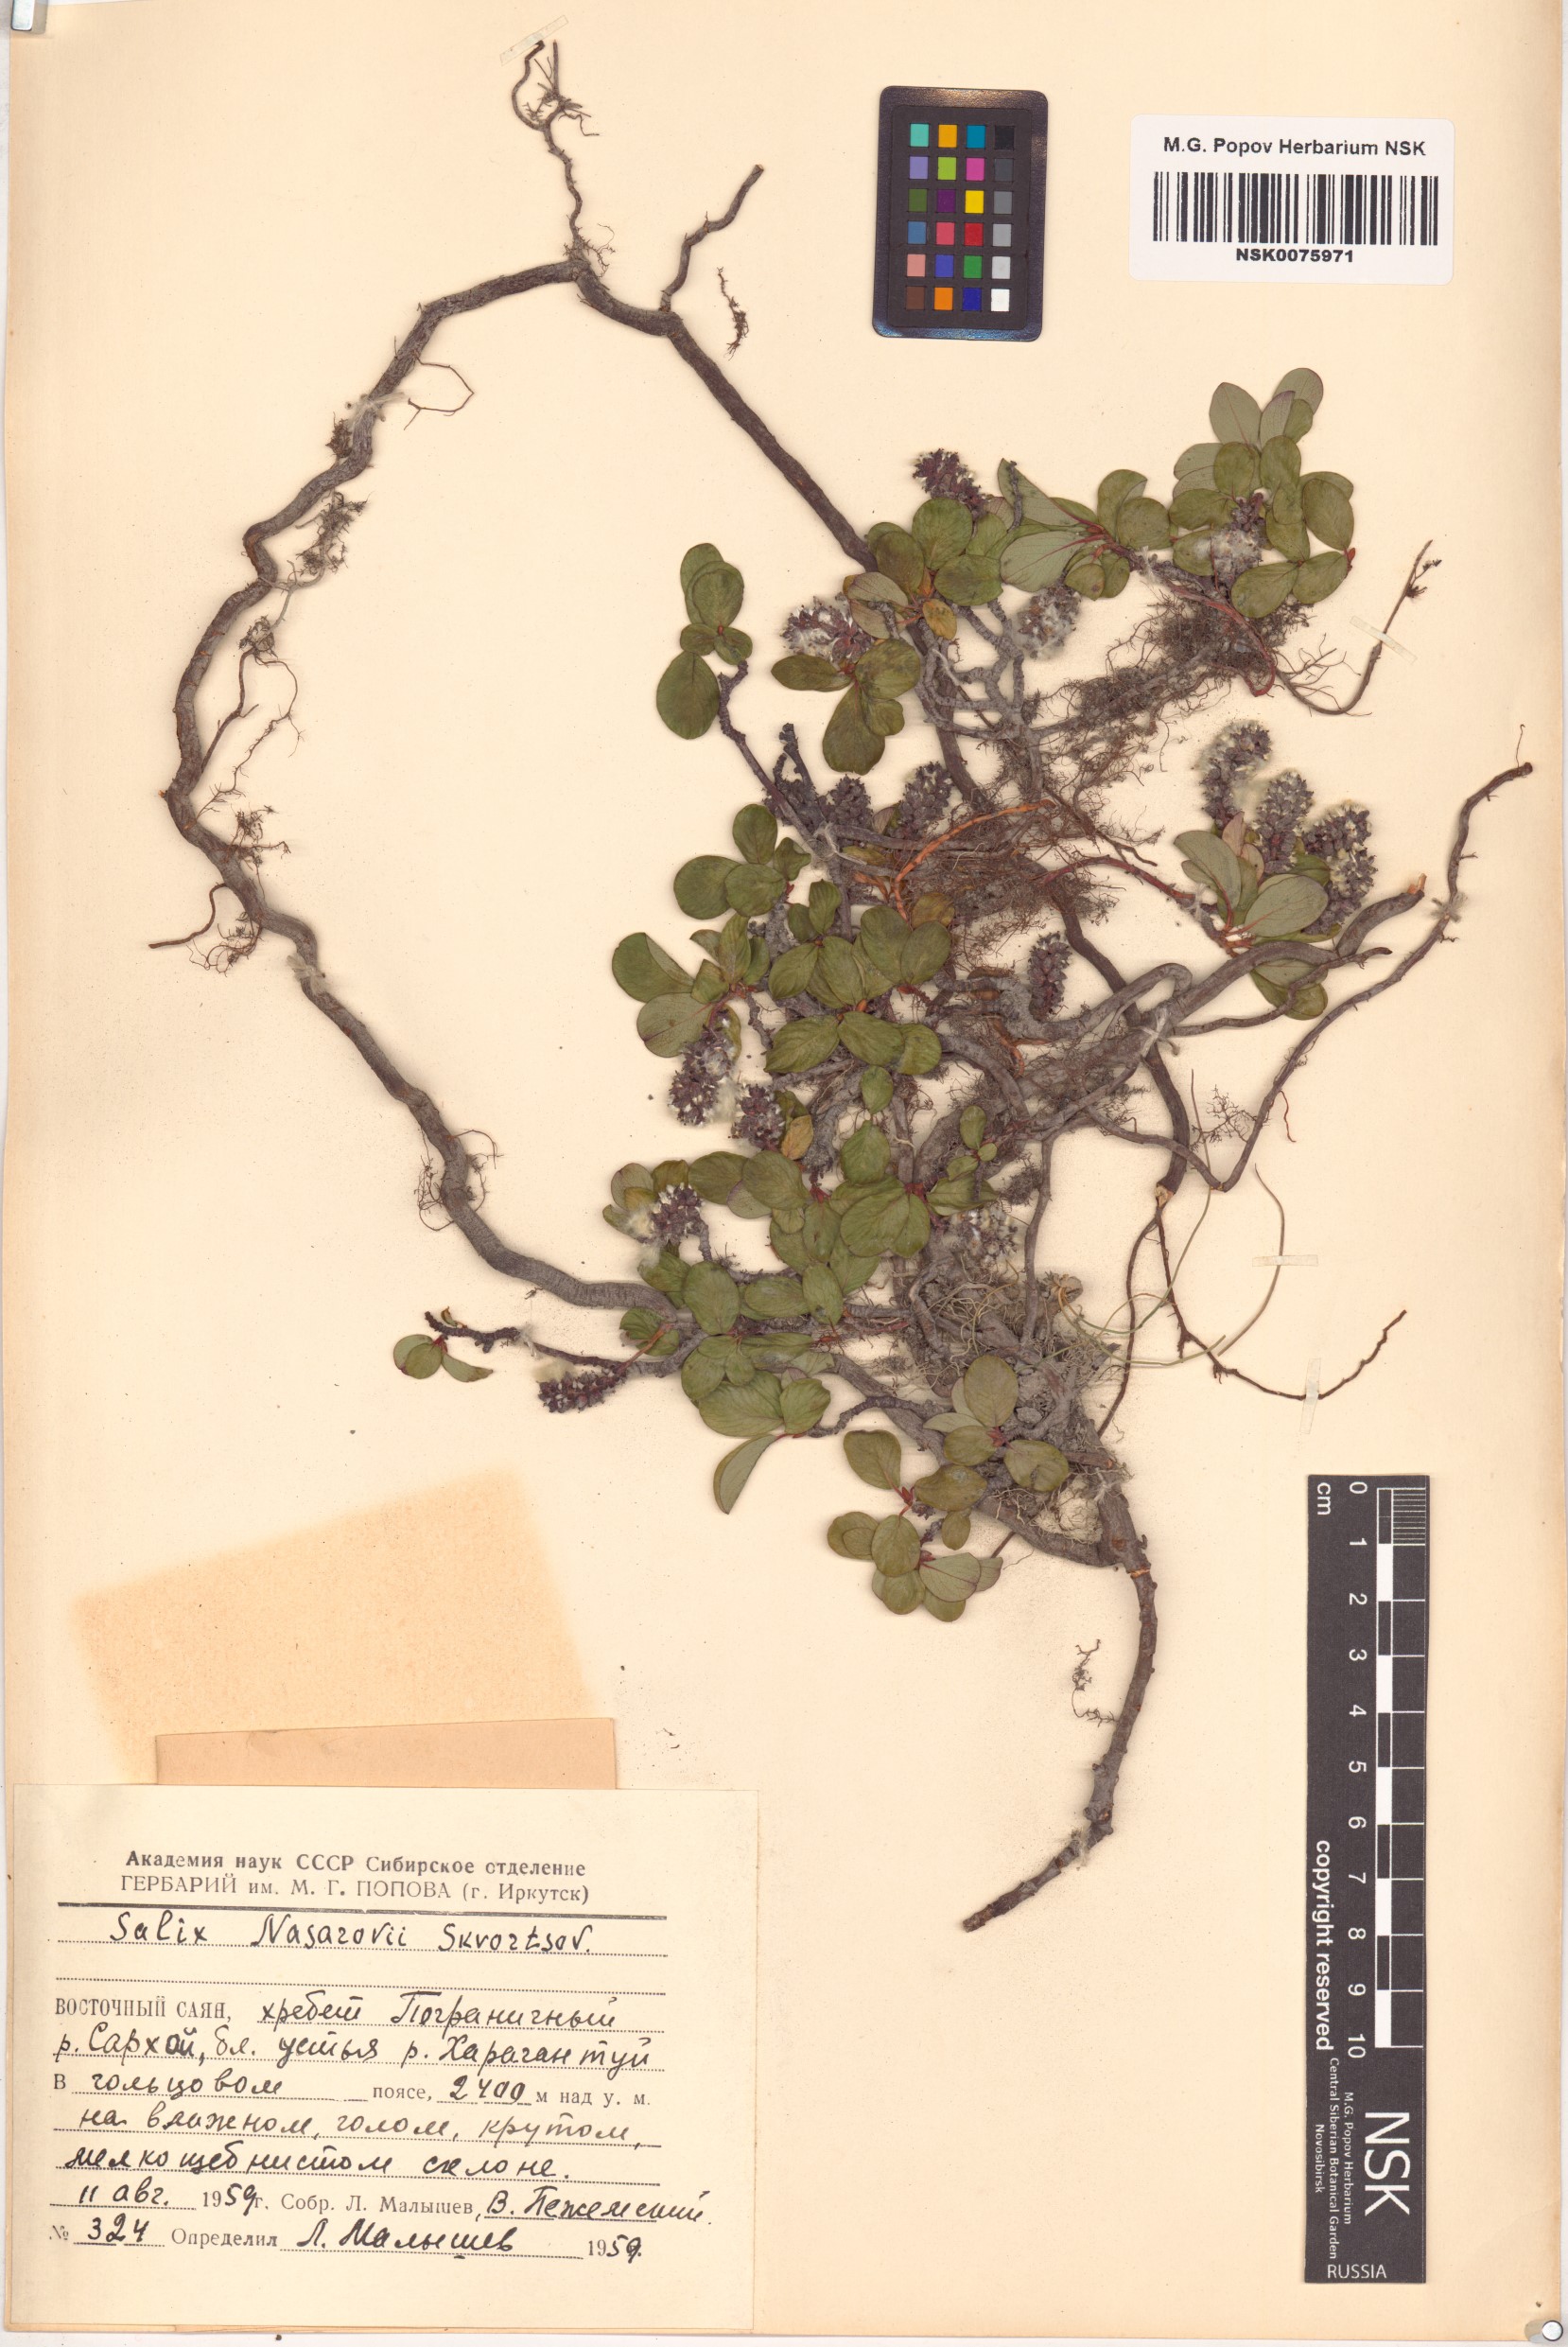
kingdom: Plantae
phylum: Tracheophyta
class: Magnoliopsida
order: Malpighiales
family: Salicaceae
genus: Salix
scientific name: Salix nasarovii
